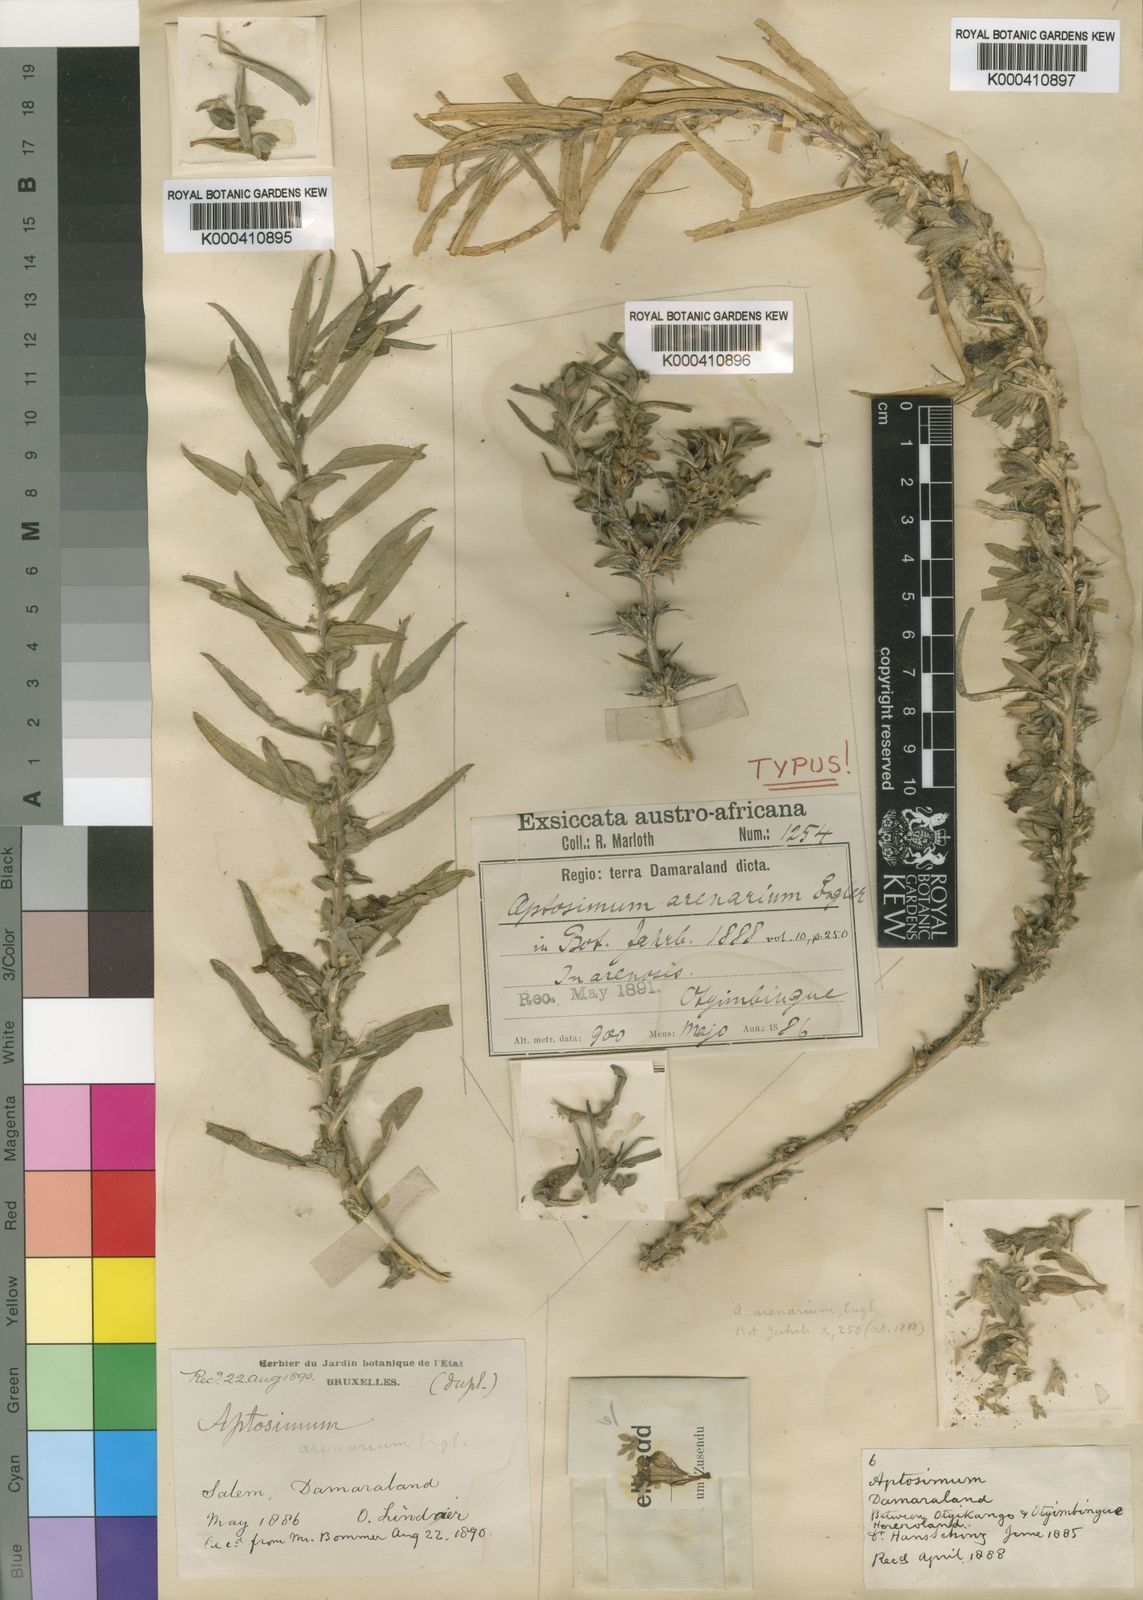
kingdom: Plantae
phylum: Tracheophyta
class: Magnoliopsida
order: Lamiales
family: Scrophulariaceae
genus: Aptosimum
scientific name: Aptosimum arenarium
